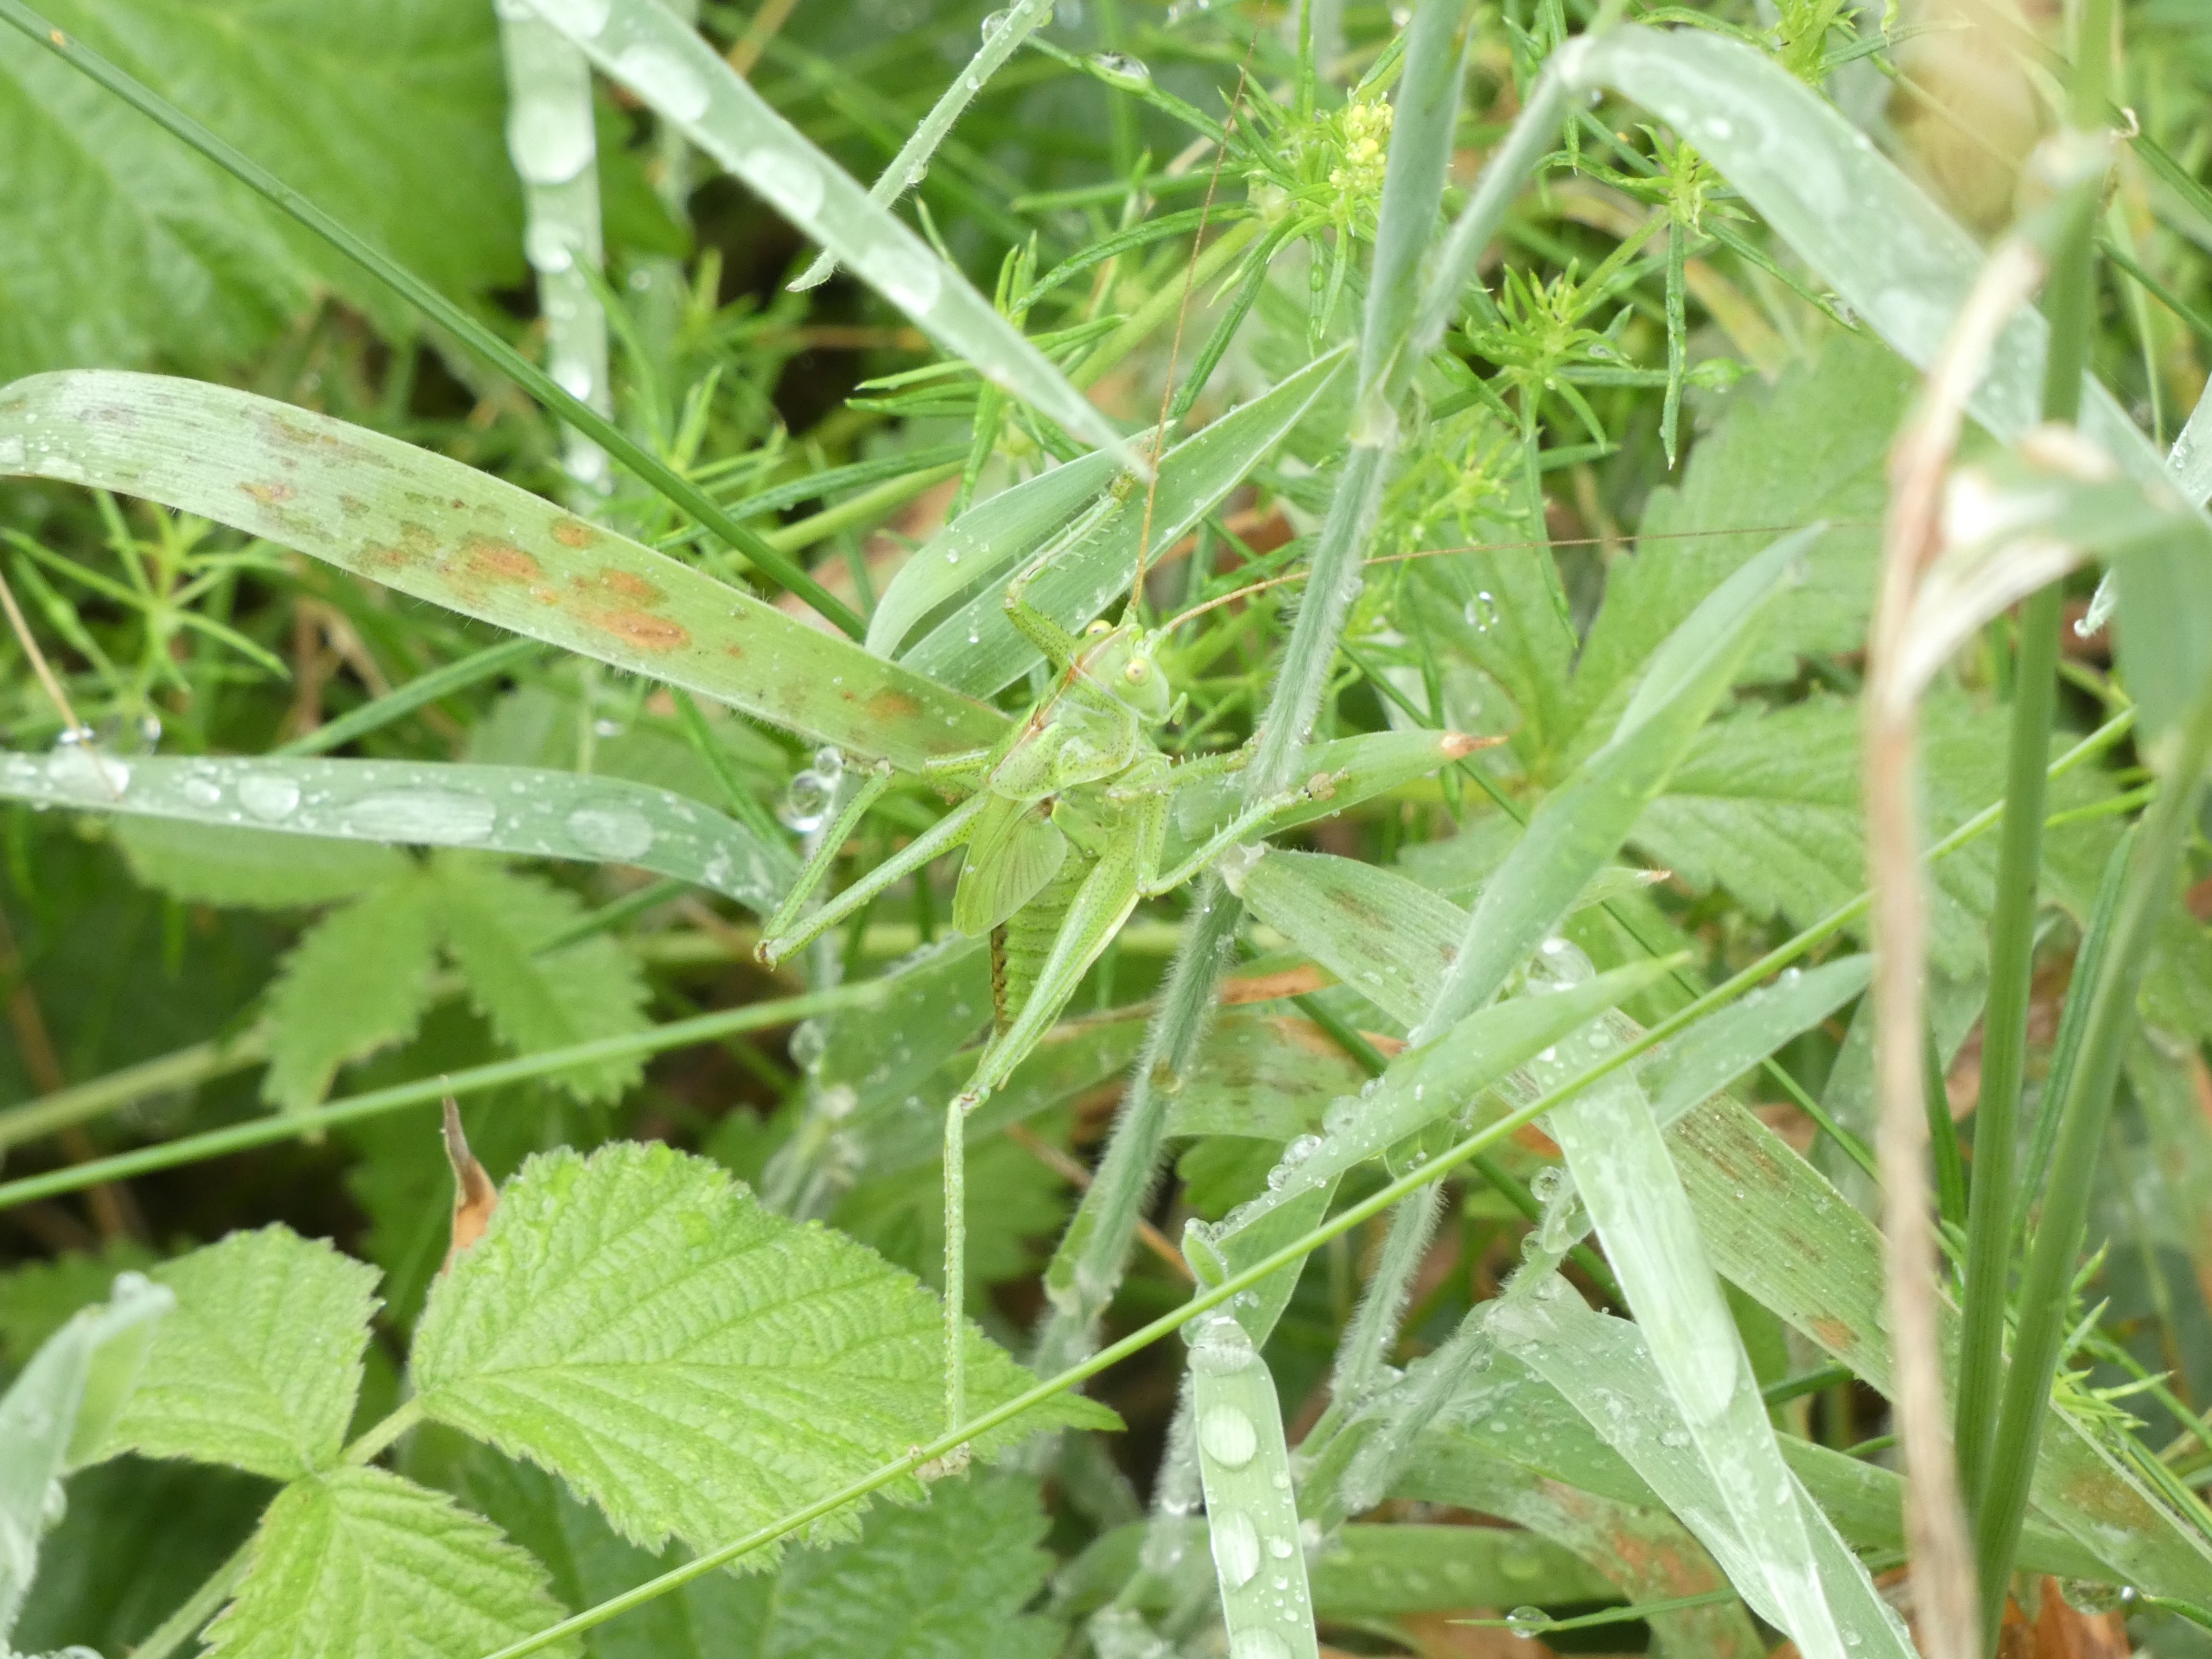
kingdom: Animalia
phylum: Arthropoda
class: Insecta
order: Orthoptera
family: Tettigoniidae
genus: Tettigonia
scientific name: Tettigonia viridissima
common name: Stor grøn løvgræshoppe
